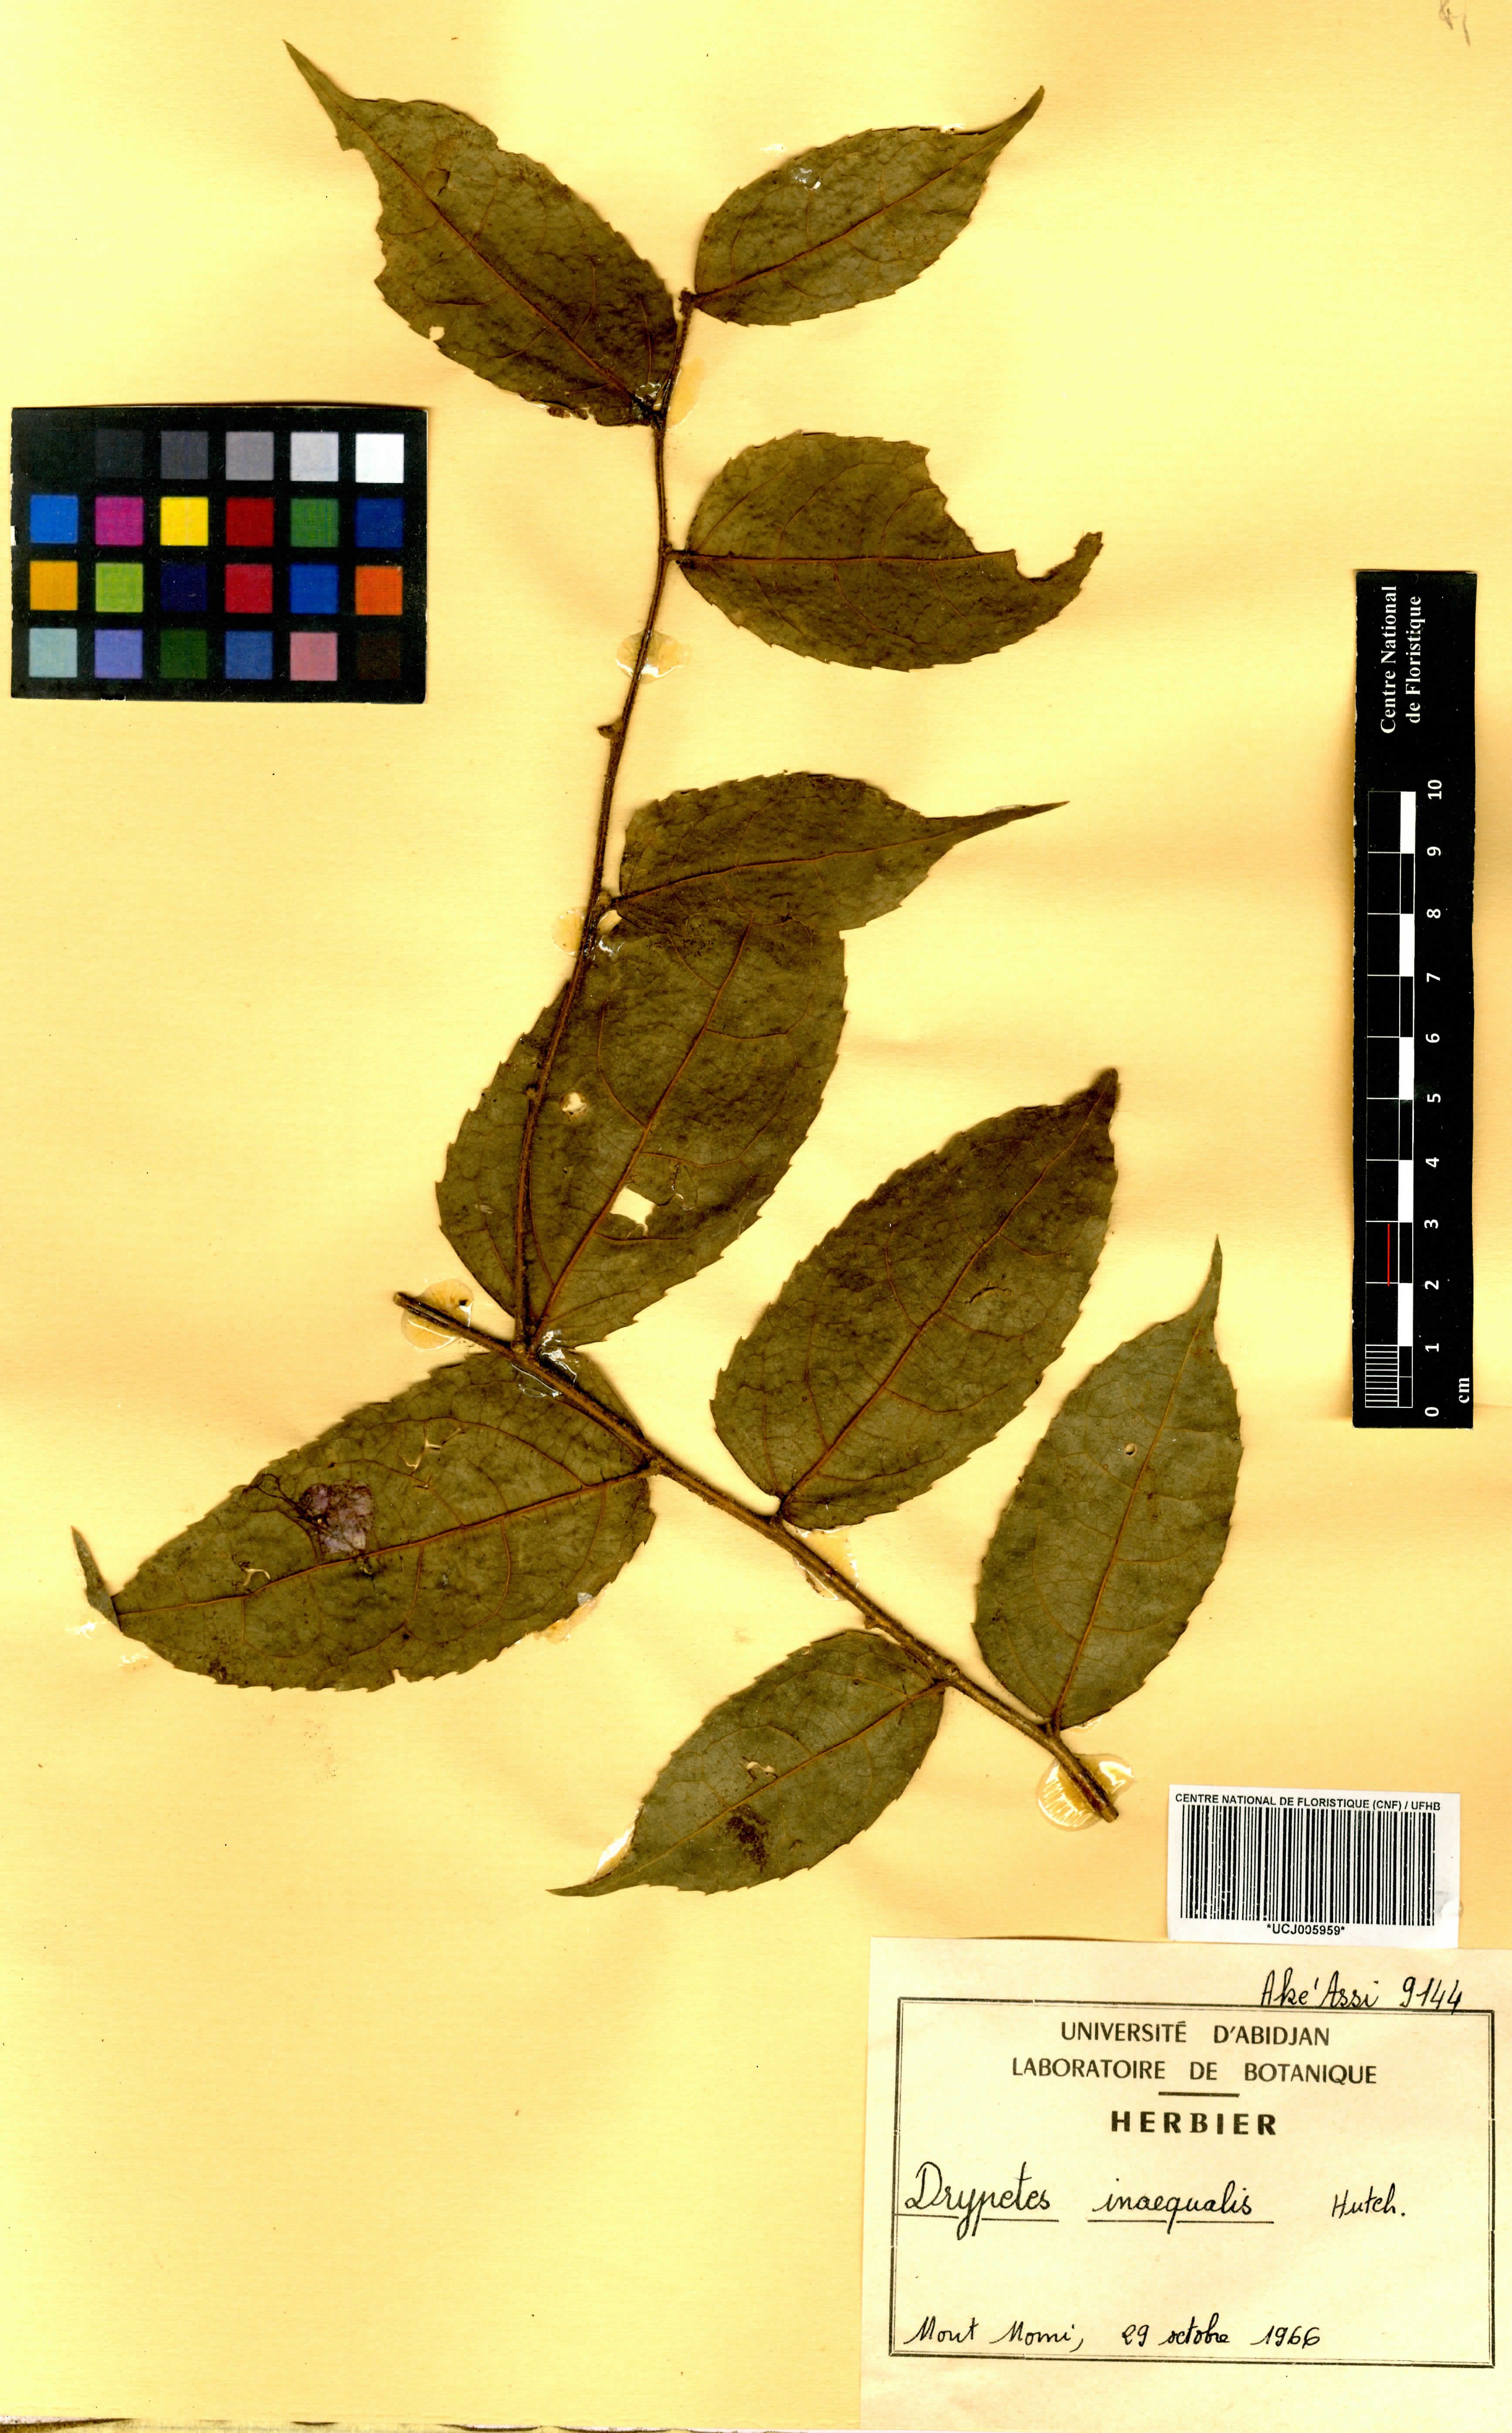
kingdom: Plantae
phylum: Tracheophyta
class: Magnoliopsida
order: Malpighiales
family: Putranjivaceae
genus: Drypetes
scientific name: Drypetes inaequalis
